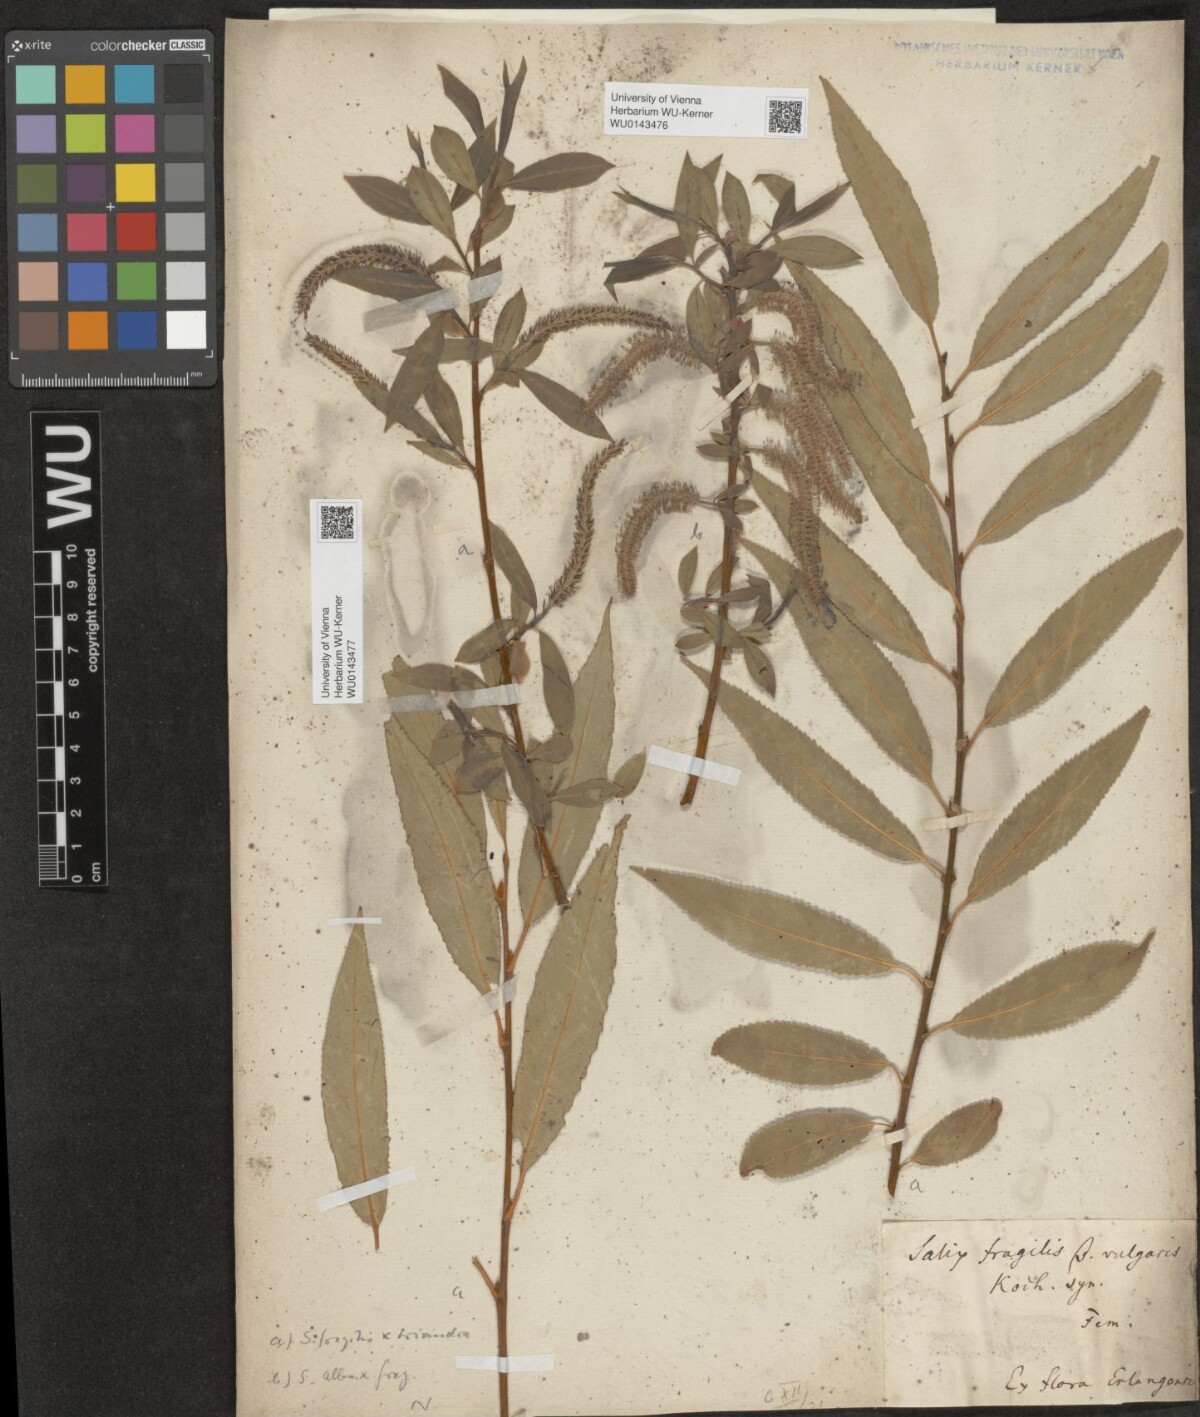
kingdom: Plantae
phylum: Tracheophyta
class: Magnoliopsida
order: Malpighiales
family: Salicaceae
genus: Salix
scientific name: Salix subtriandra
